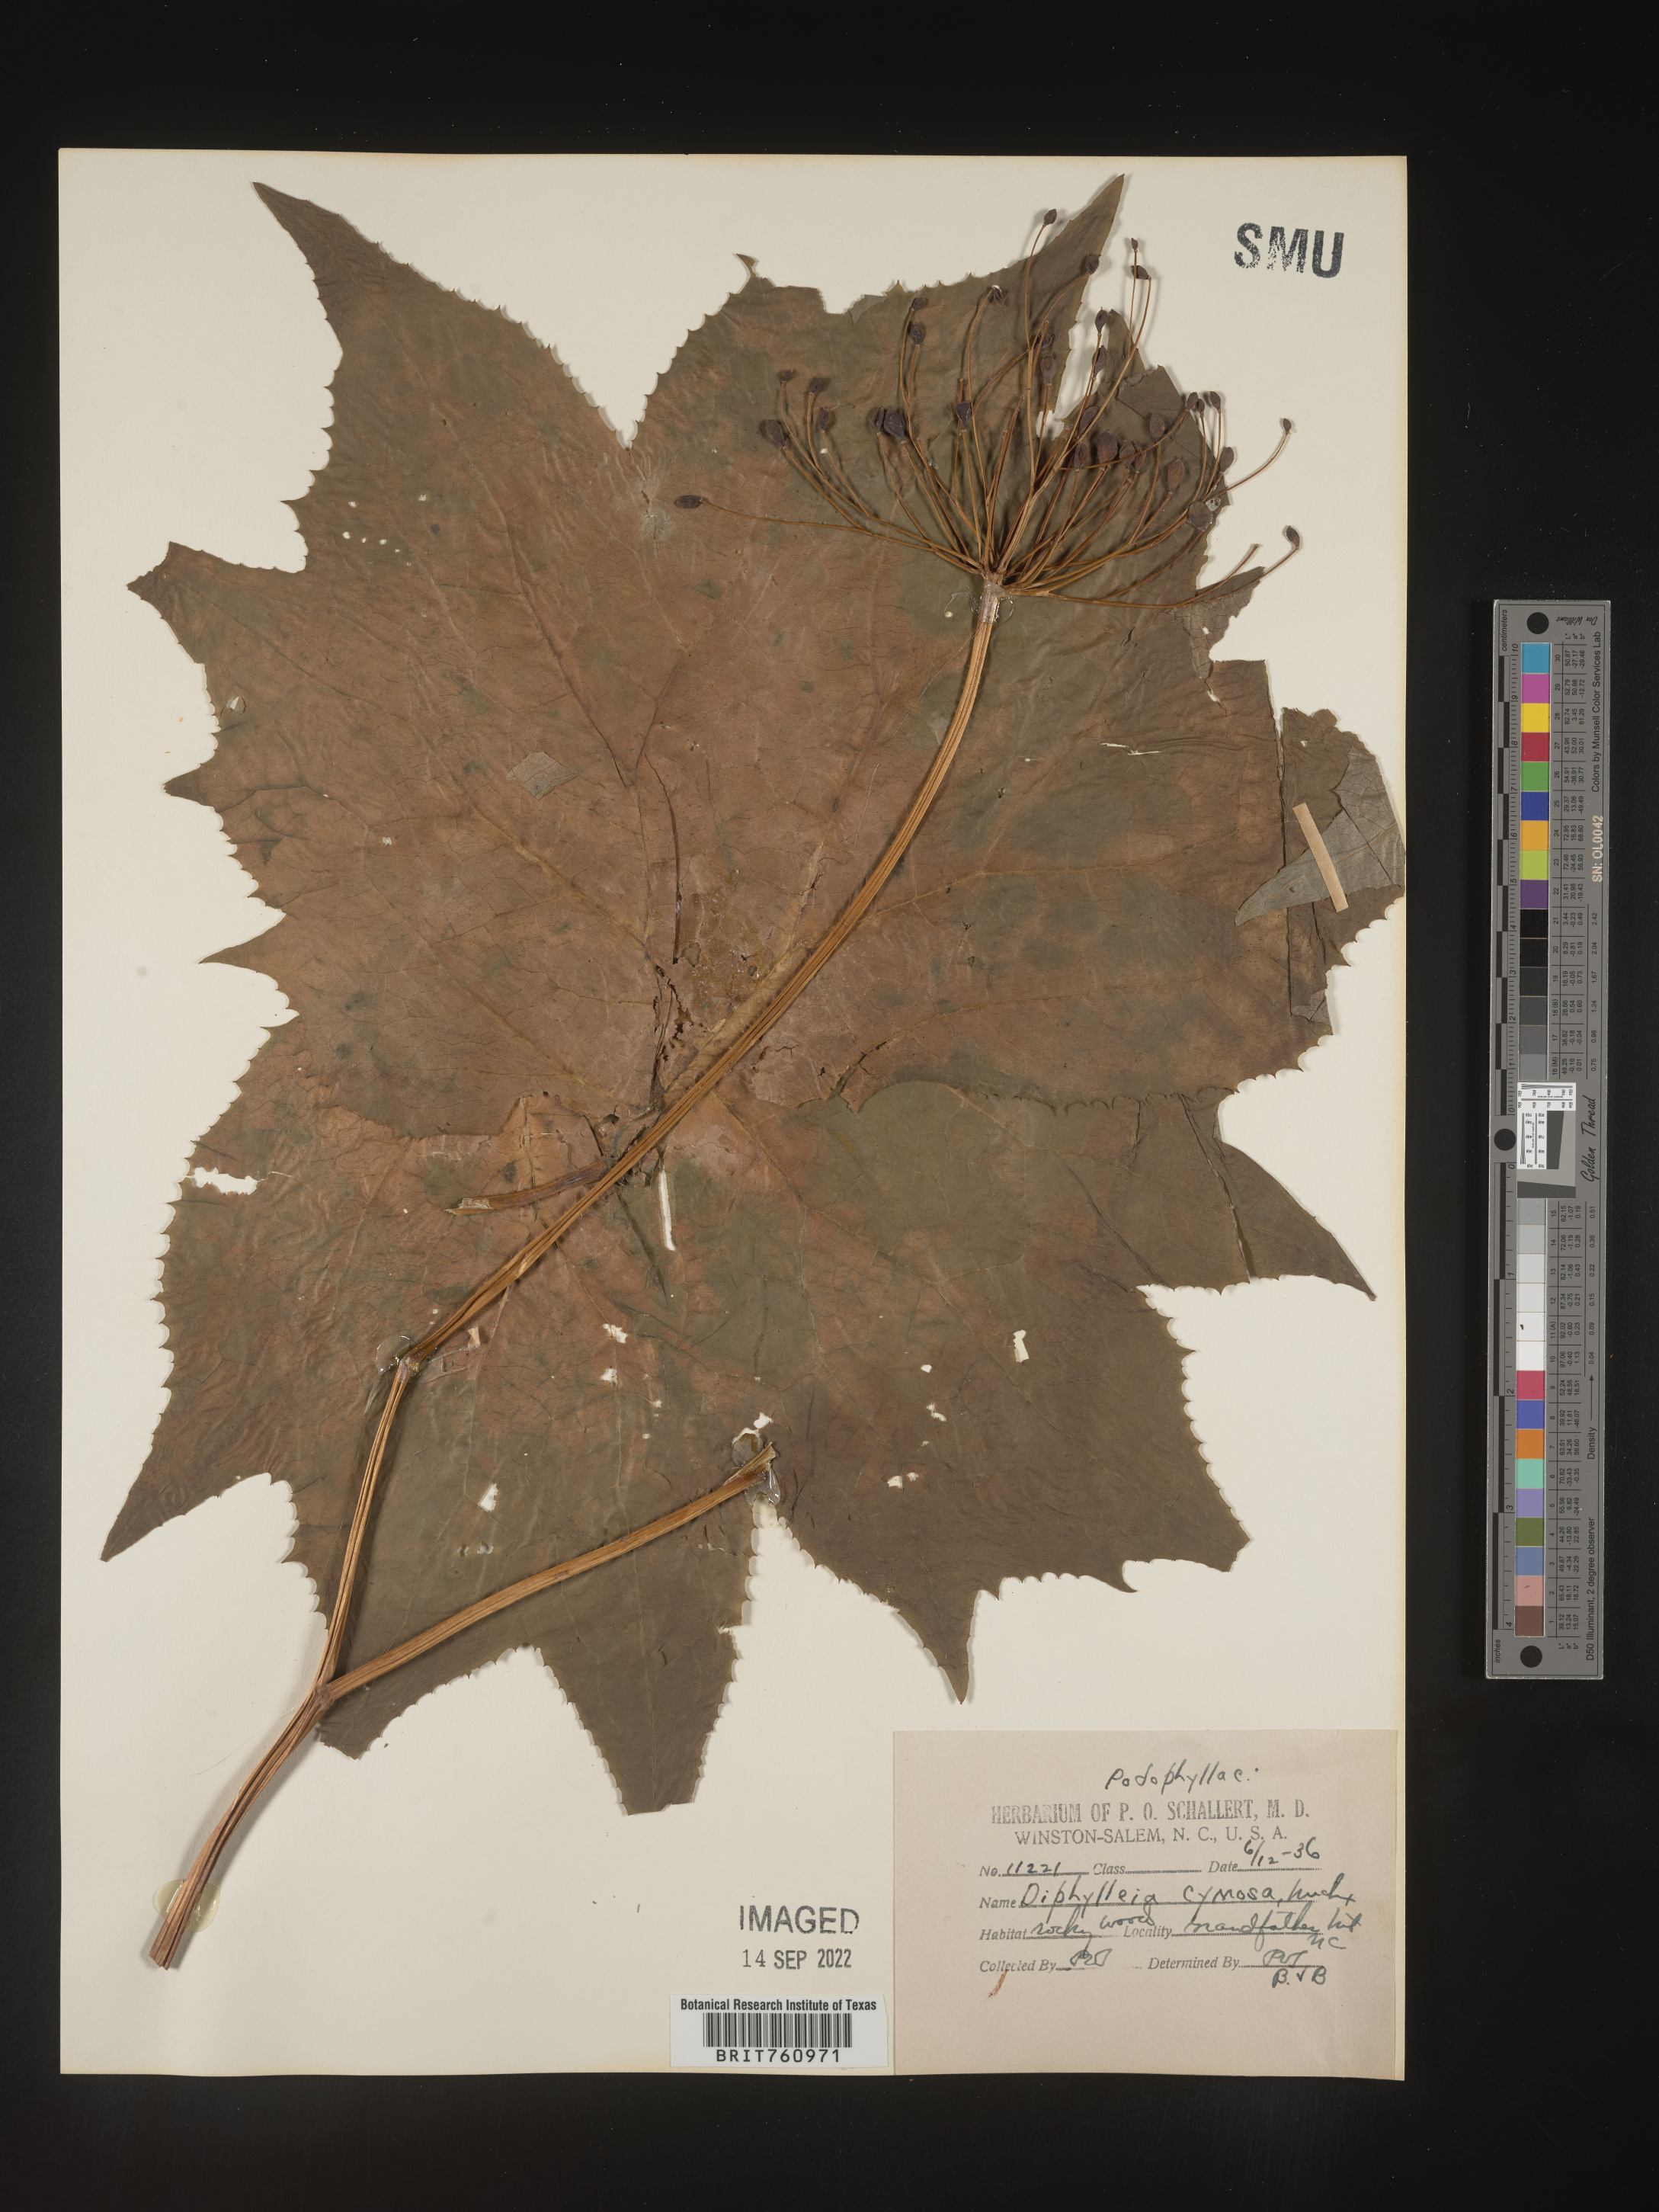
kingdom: Plantae
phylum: Tracheophyta
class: Magnoliopsida
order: Ranunculales
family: Berberidaceae
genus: Diphylleia
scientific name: Diphylleia
